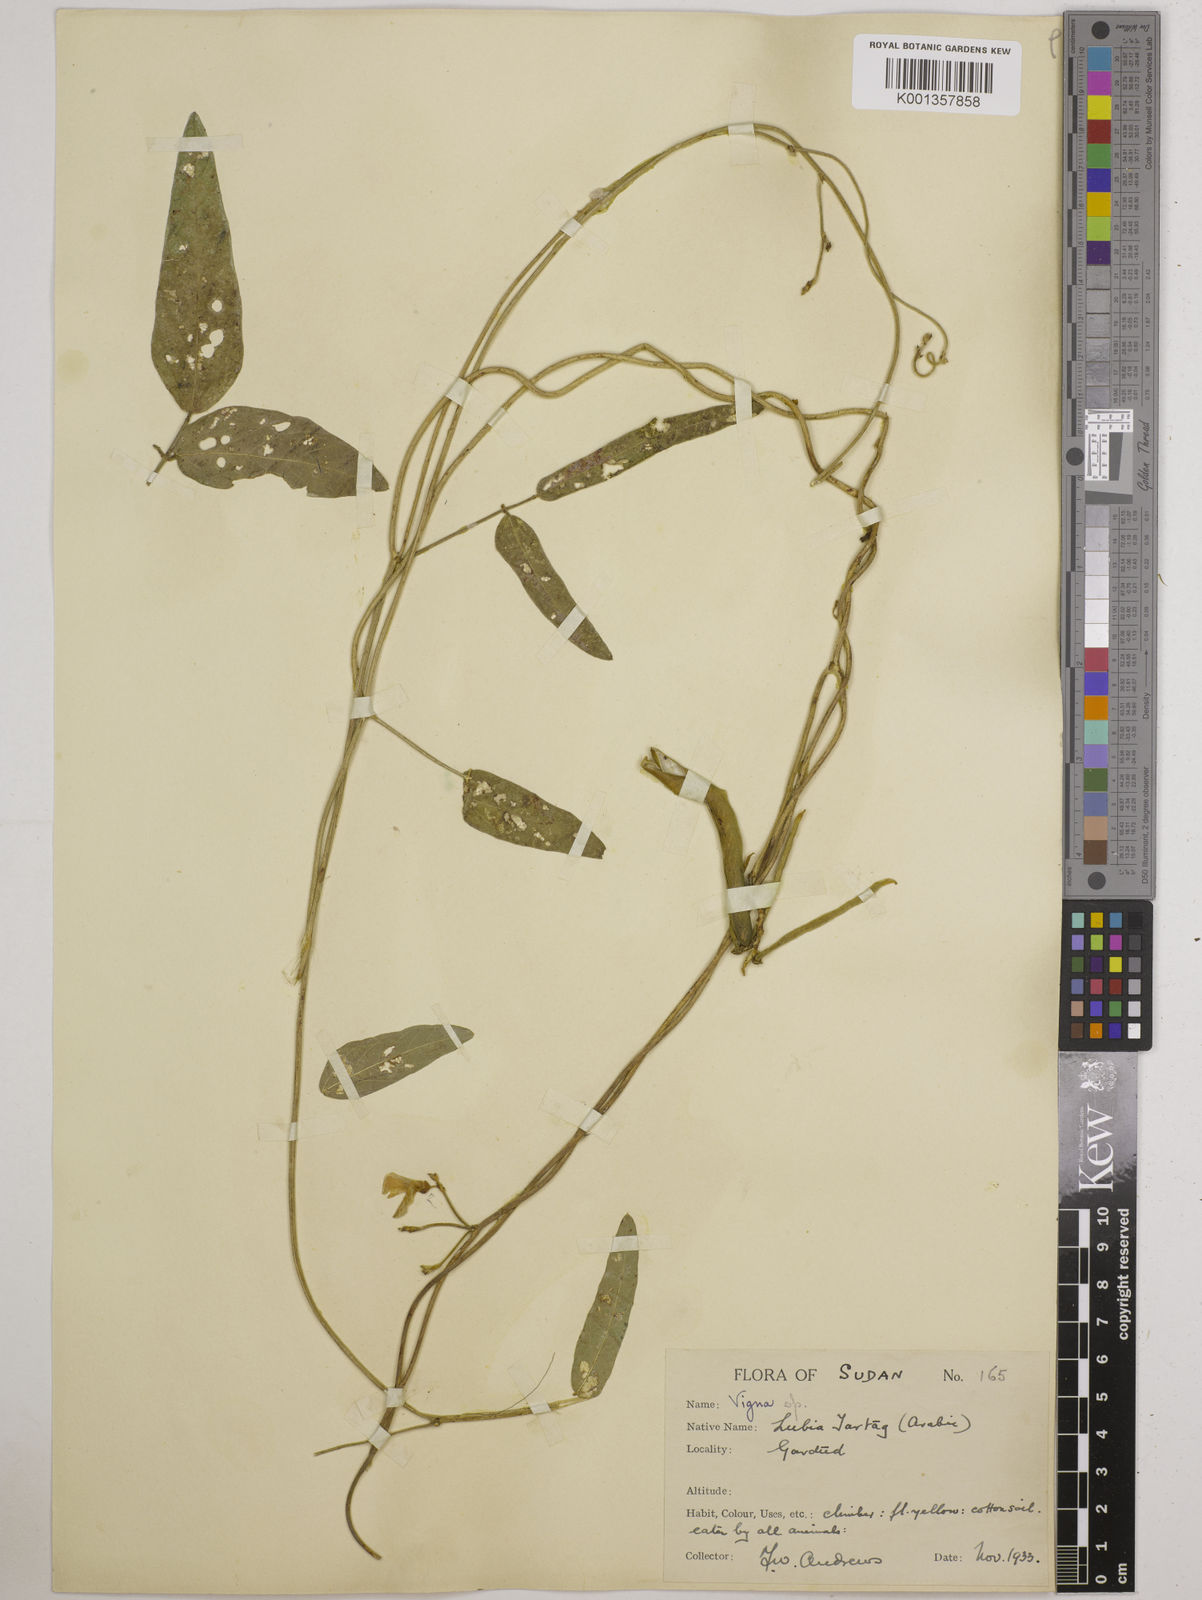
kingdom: Plantae
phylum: Tracheophyta
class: Magnoliopsida
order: Fabales
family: Fabaceae
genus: Vigna
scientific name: Vigna ambacensis
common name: Tsarkiyan zomo
